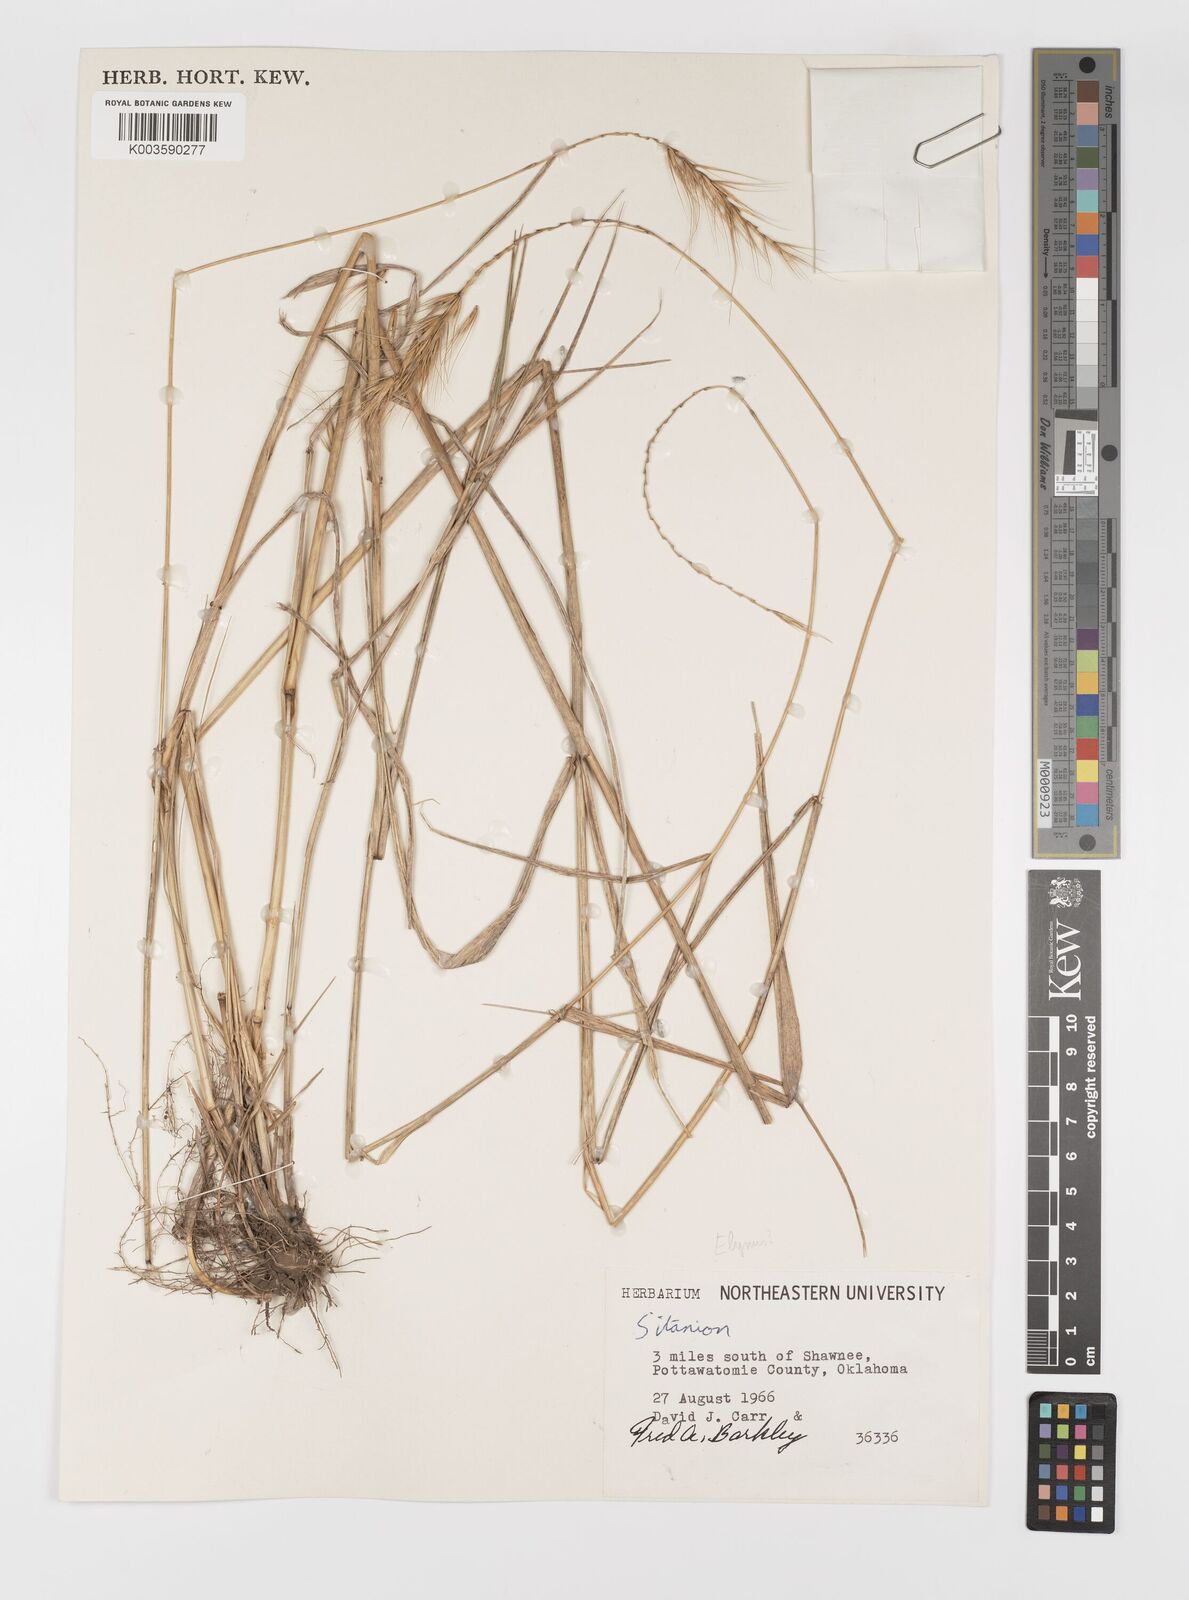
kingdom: Plantae
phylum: Tracheophyta
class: Liliopsida
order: Poales
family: Poaceae
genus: Elymus
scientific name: Elymus
